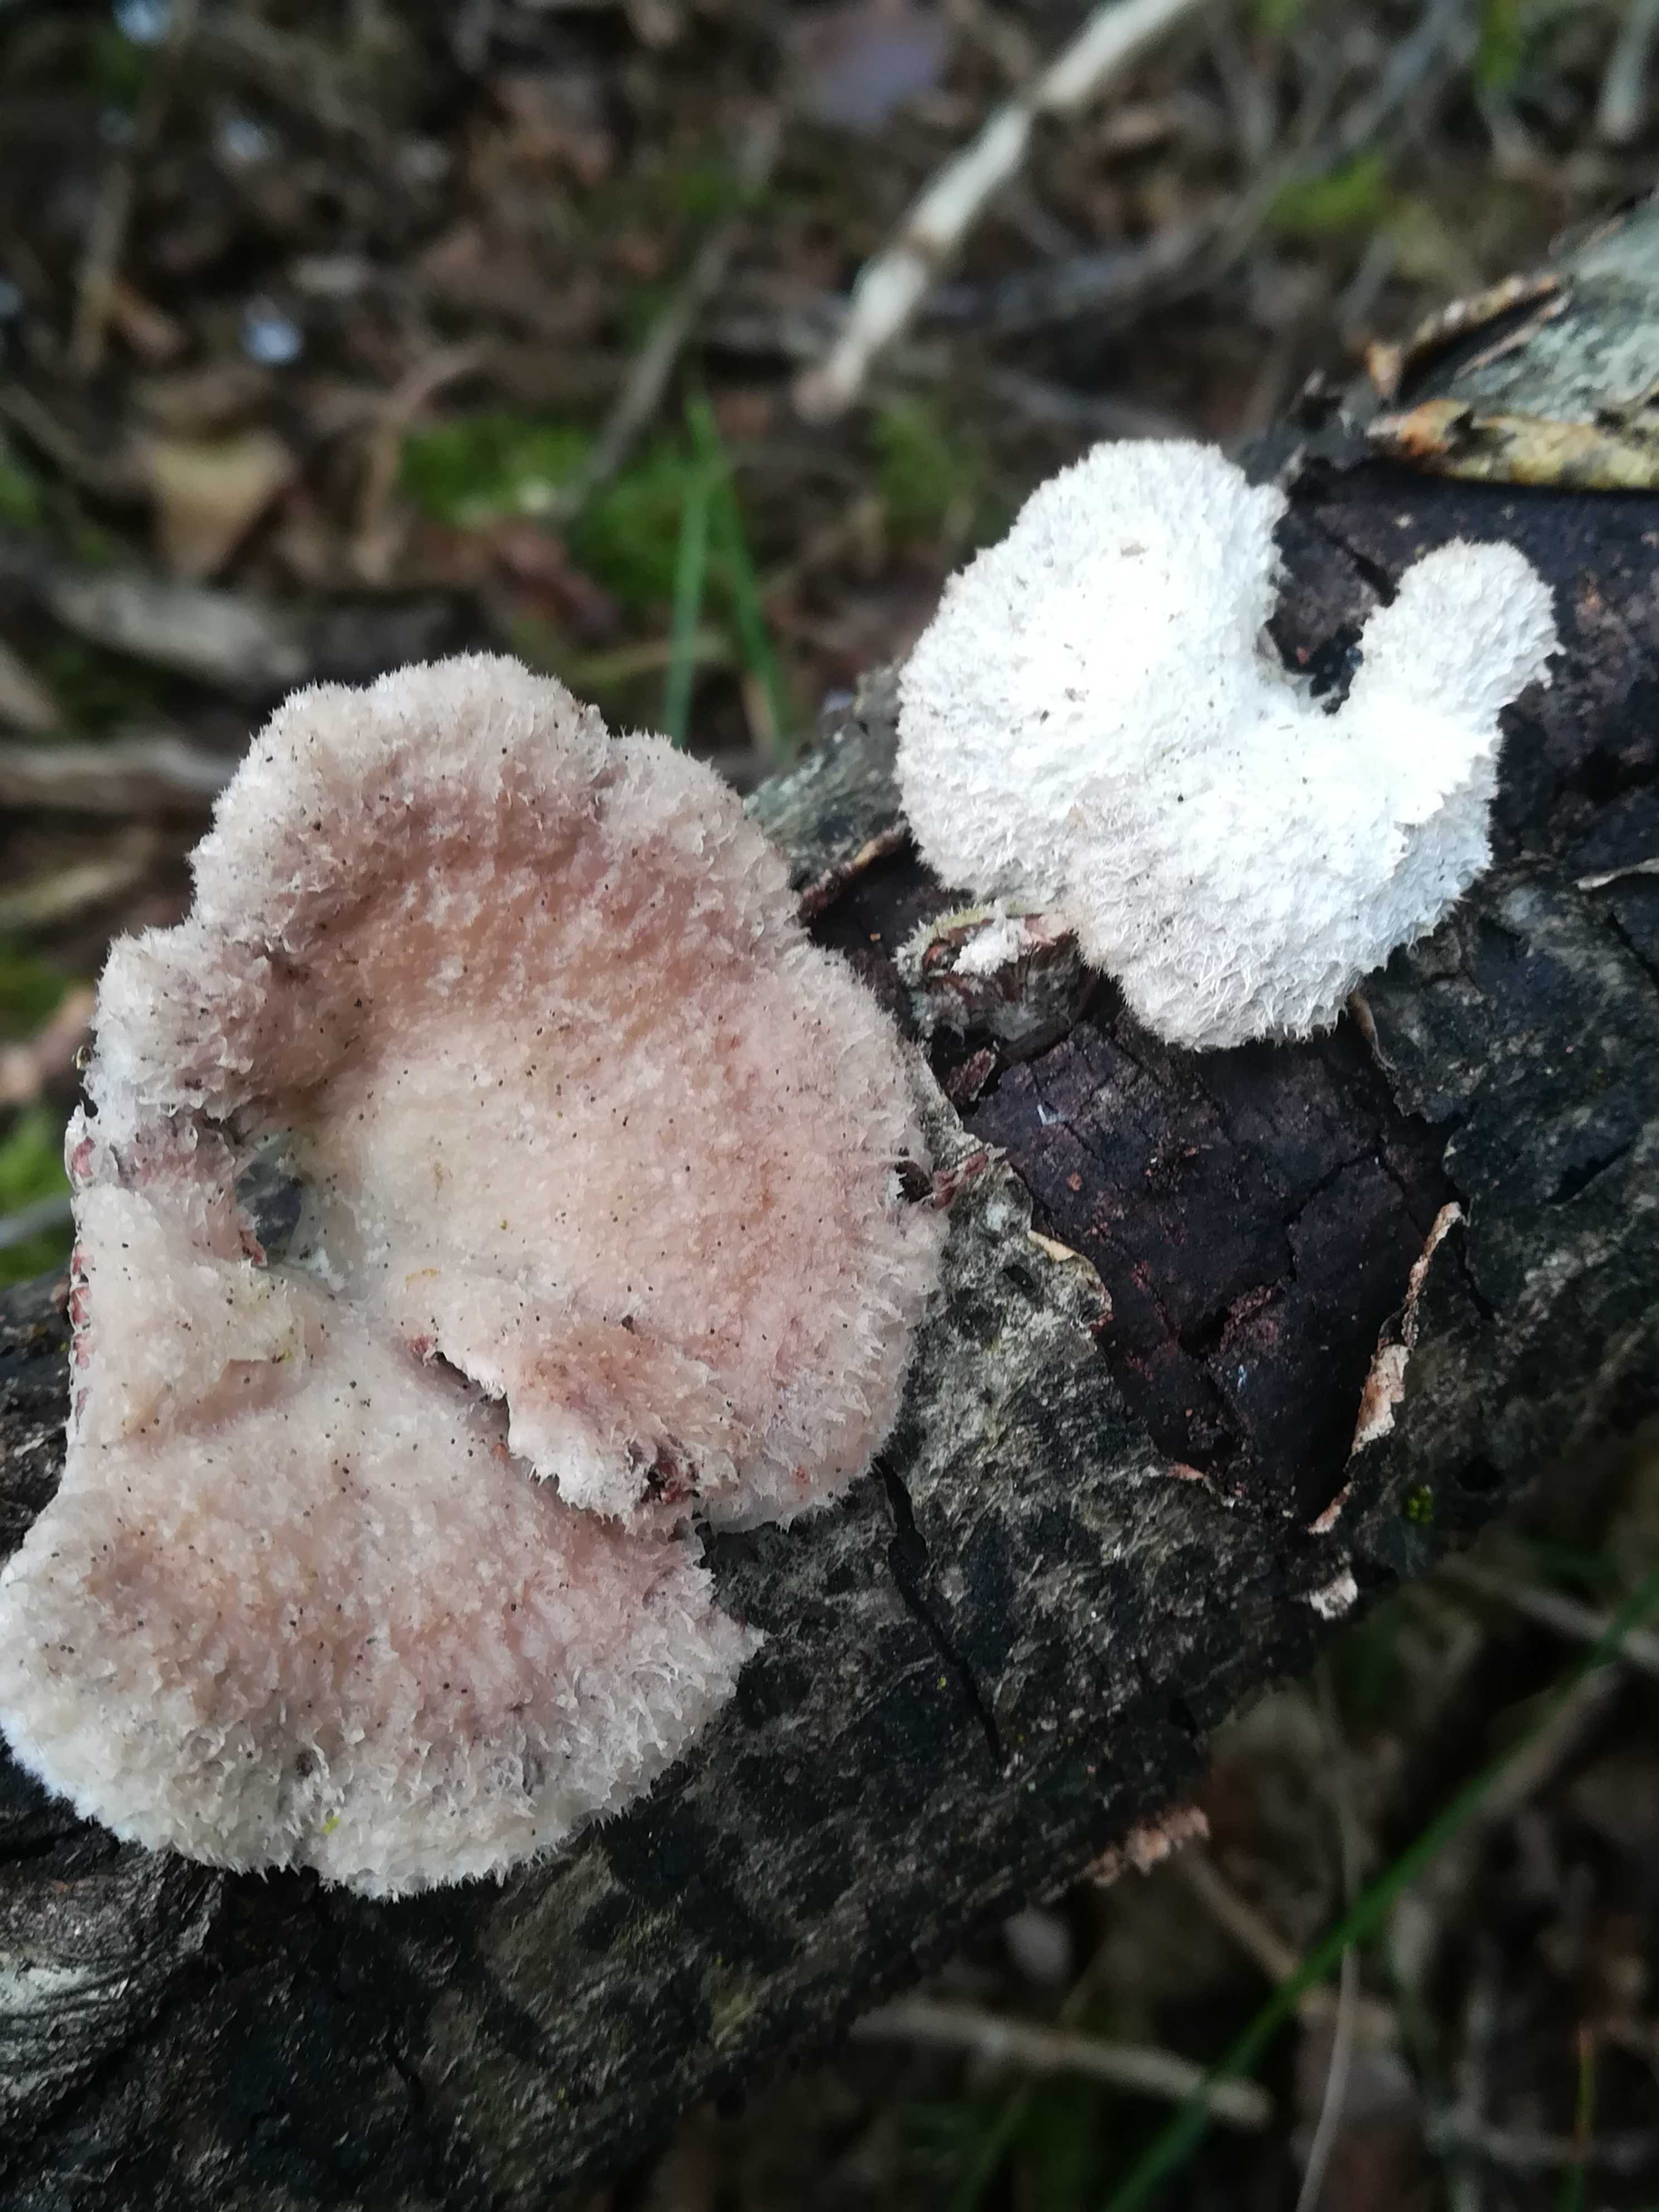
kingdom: Fungi
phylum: Basidiomycota
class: Agaricomycetes
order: Agaricales
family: Schizophyllaceae
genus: Schizophyllum
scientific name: Schizophyllum commune
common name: kløvblad
